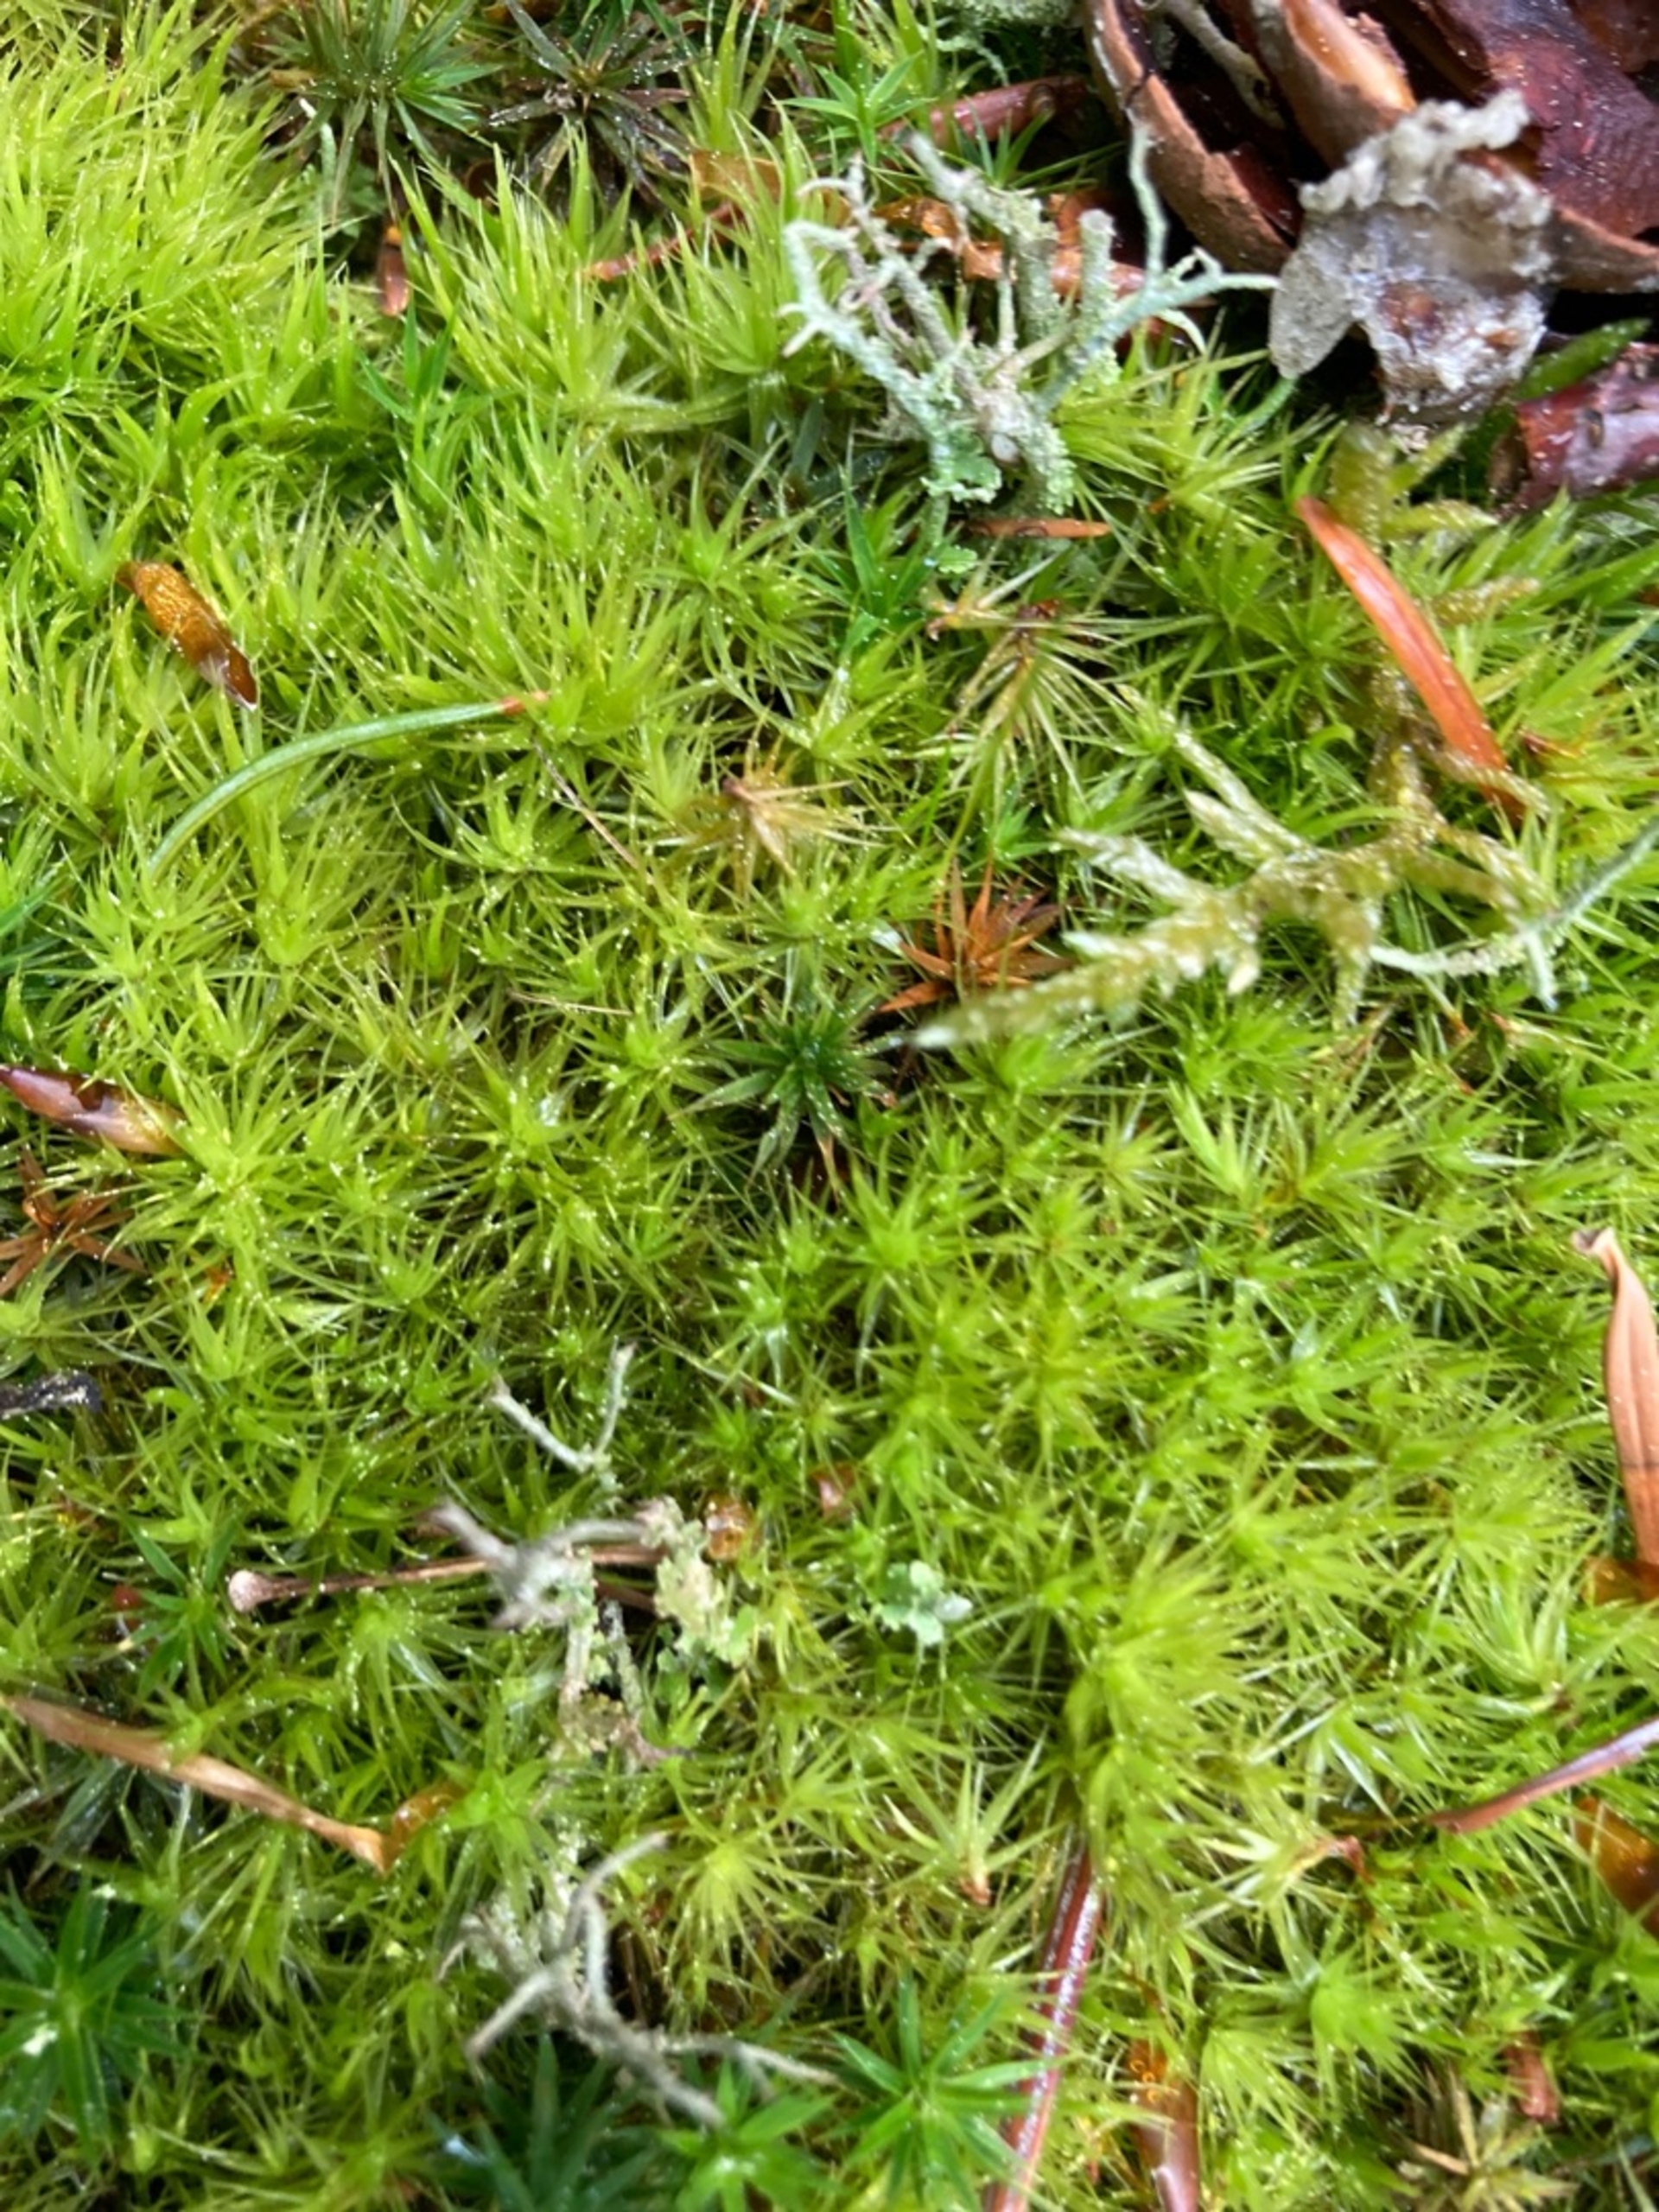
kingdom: Plantae
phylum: Bryophyta
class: Bryopsida
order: Dicranales
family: Dicranaceae
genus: Dicranum
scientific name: Dicranum scoparium
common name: Almindelig kløvtand
